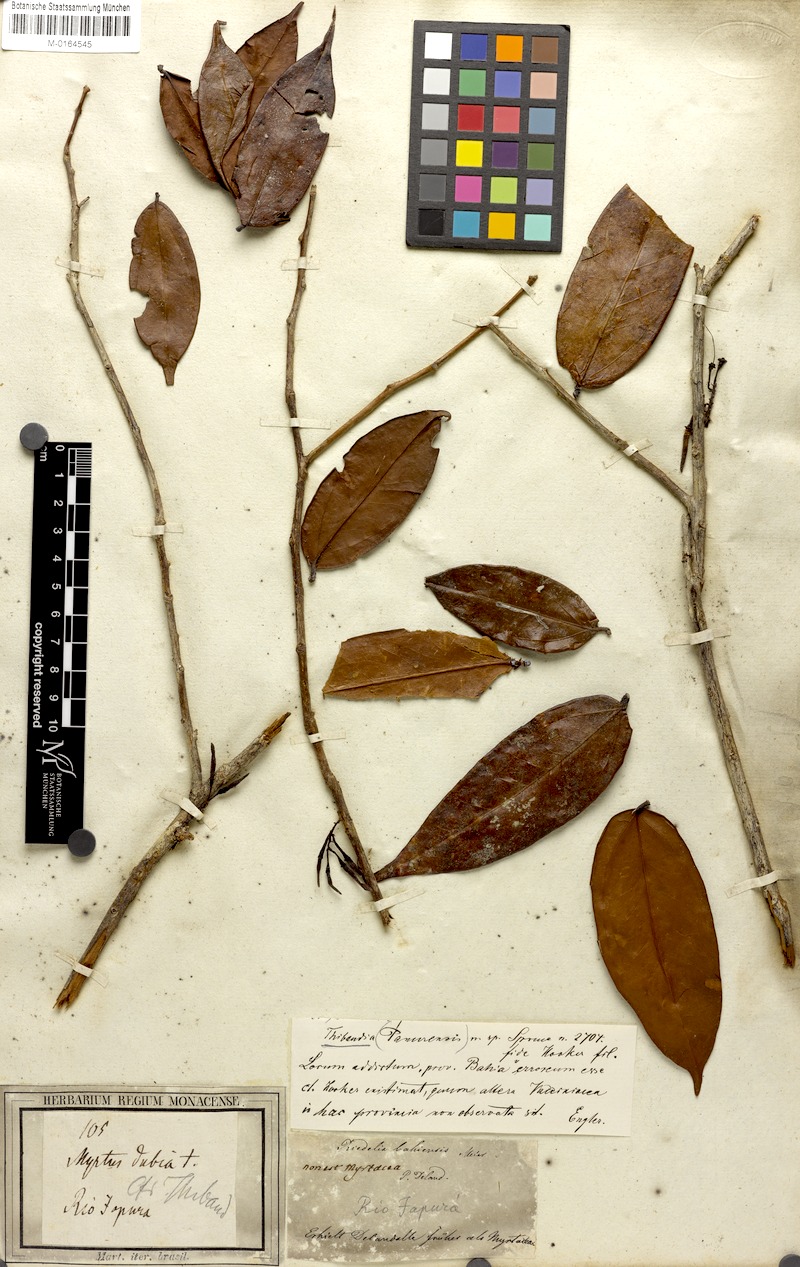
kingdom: Plantae
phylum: Tracheophyta
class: Magnoliopsida
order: Ericales
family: Ericaceae
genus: Satyria
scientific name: Satyria panurensis
